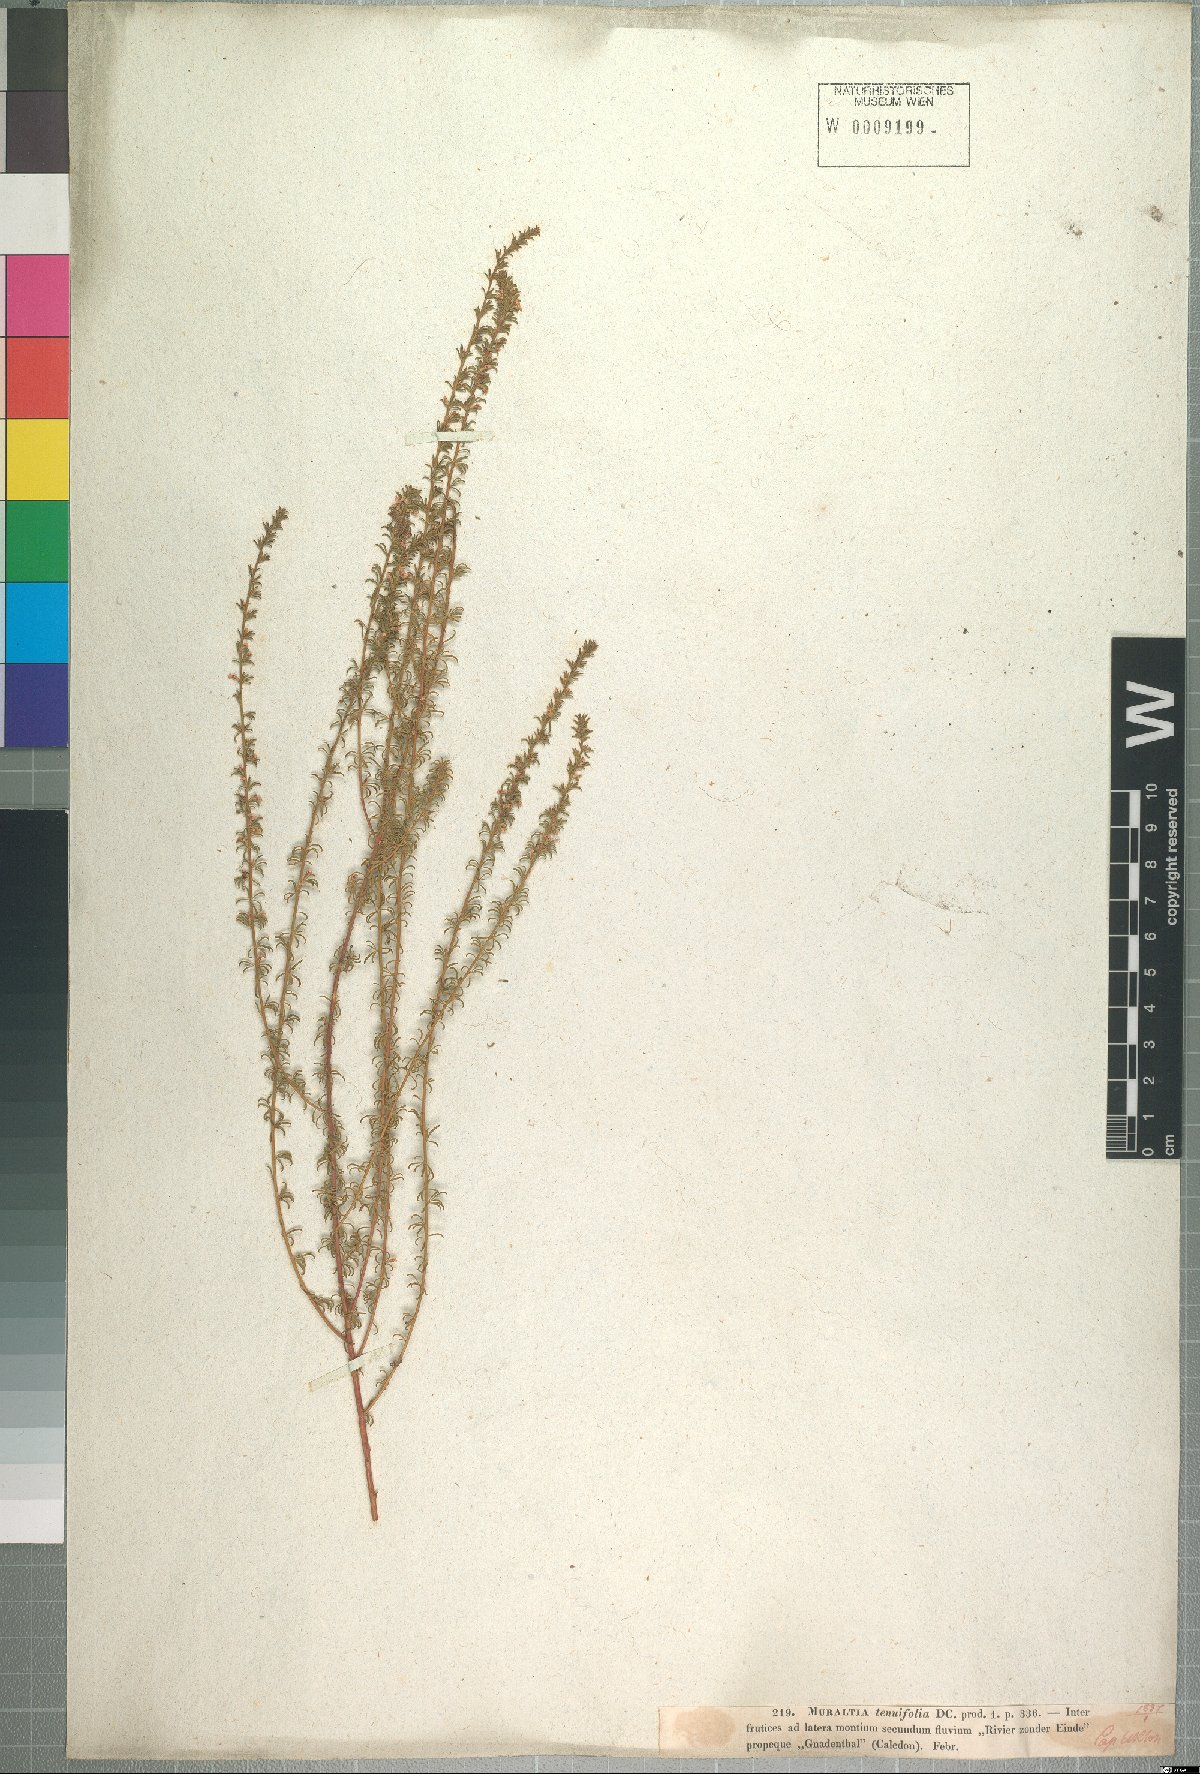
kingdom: Plantae
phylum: Tracheophyta
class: Magnoliopsida
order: Fabales
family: Polygalaceae
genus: Muraltia
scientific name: Muraltia tenuifolia
